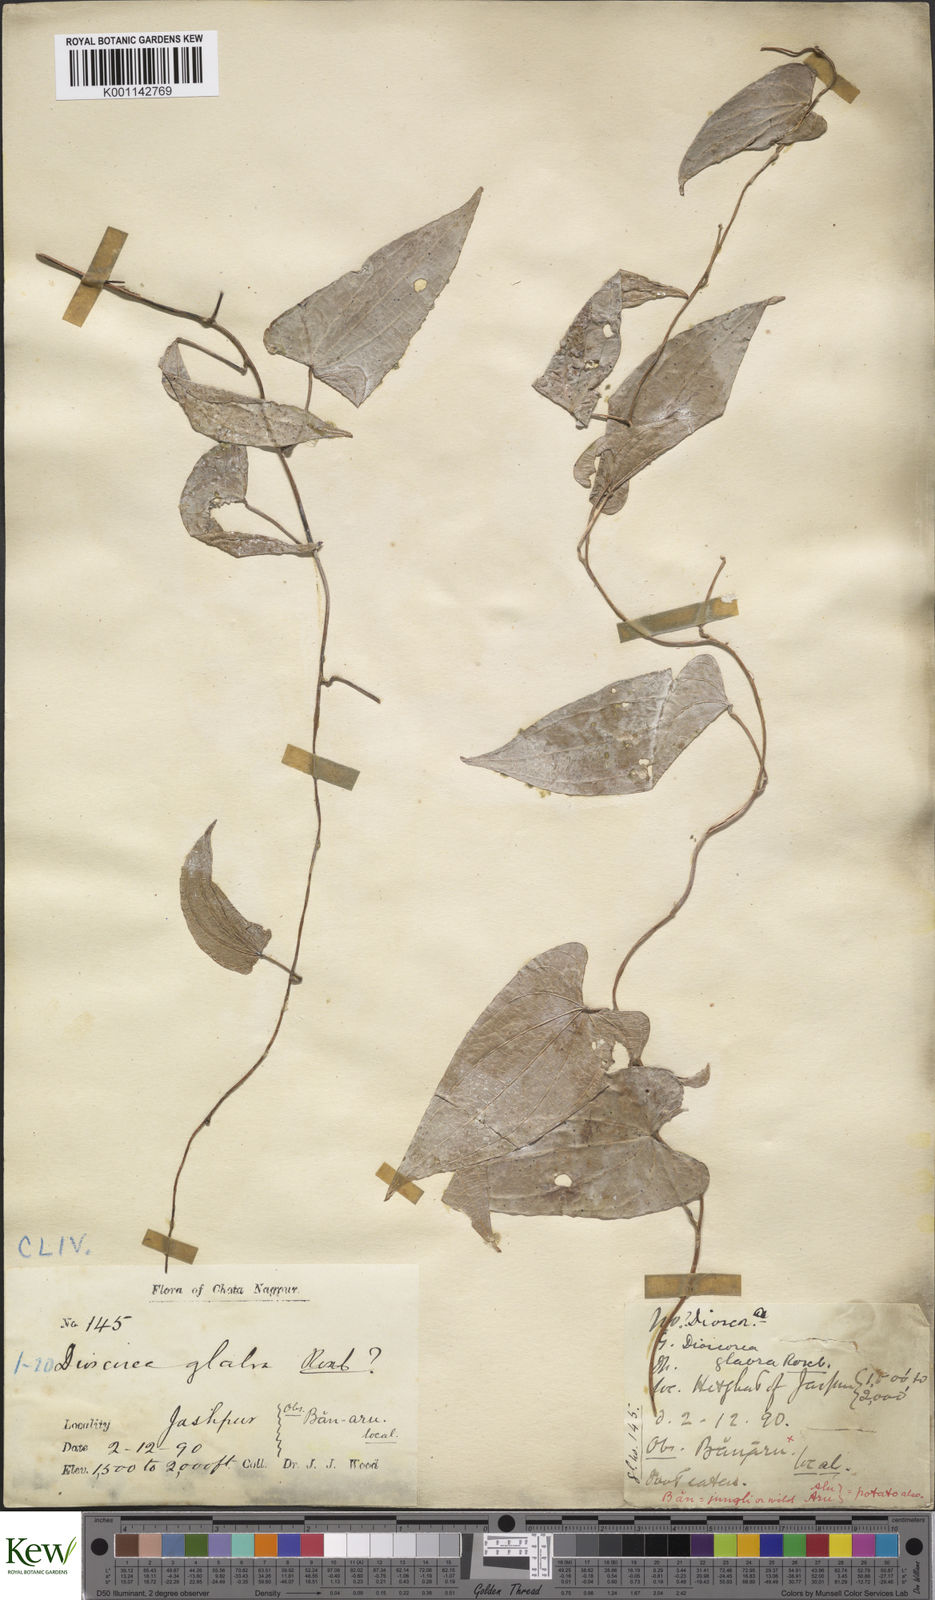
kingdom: Plantae
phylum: Tracheophyta
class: Liliopsida
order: Dioscoreales
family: Dioscoreaceae
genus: Dioscorea
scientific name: Dioscorea belophylla
